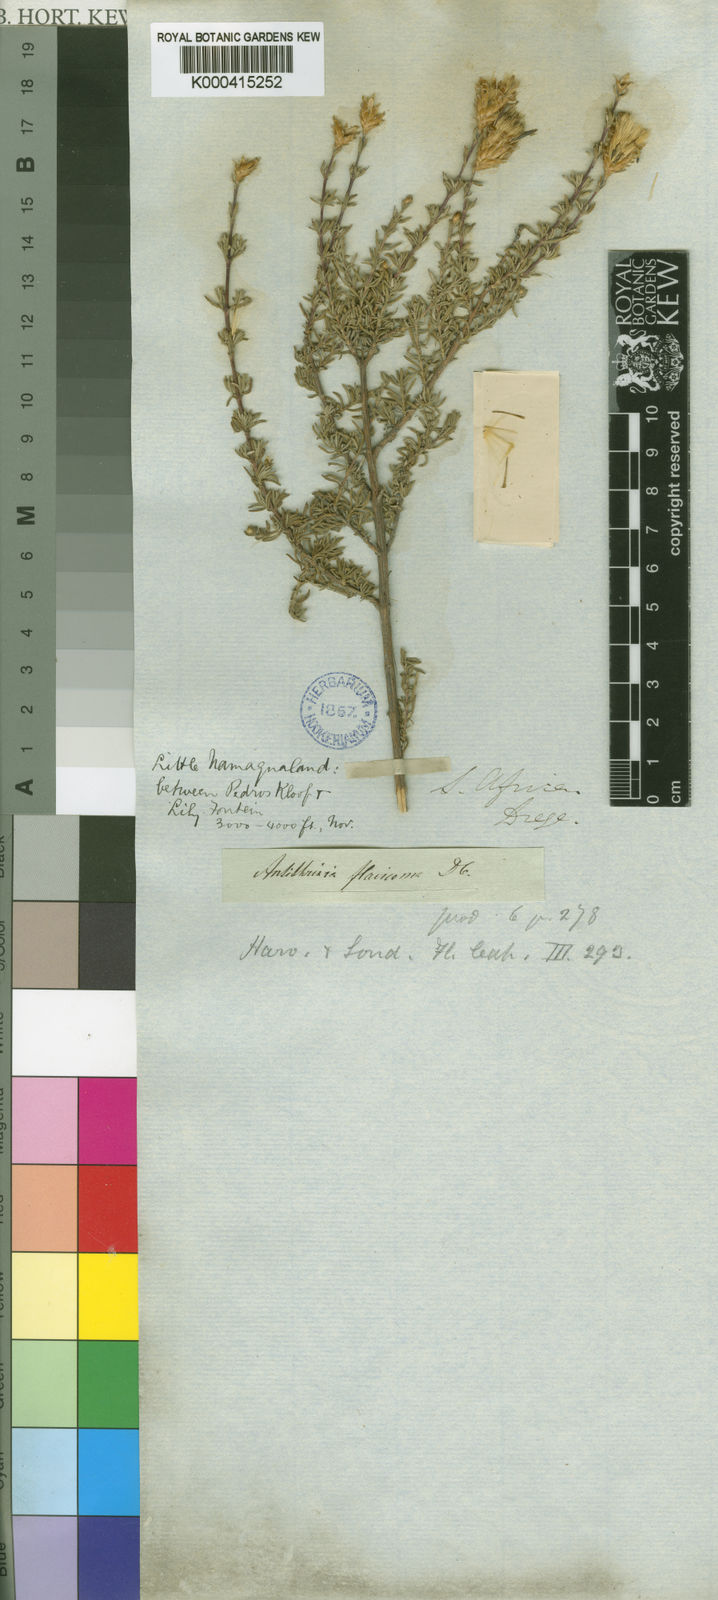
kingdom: Plantae
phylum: Tracheophyta
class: Magnoliopsida
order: Asterales
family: Asteraceae
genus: Oedera
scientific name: Oedera flavicoma
